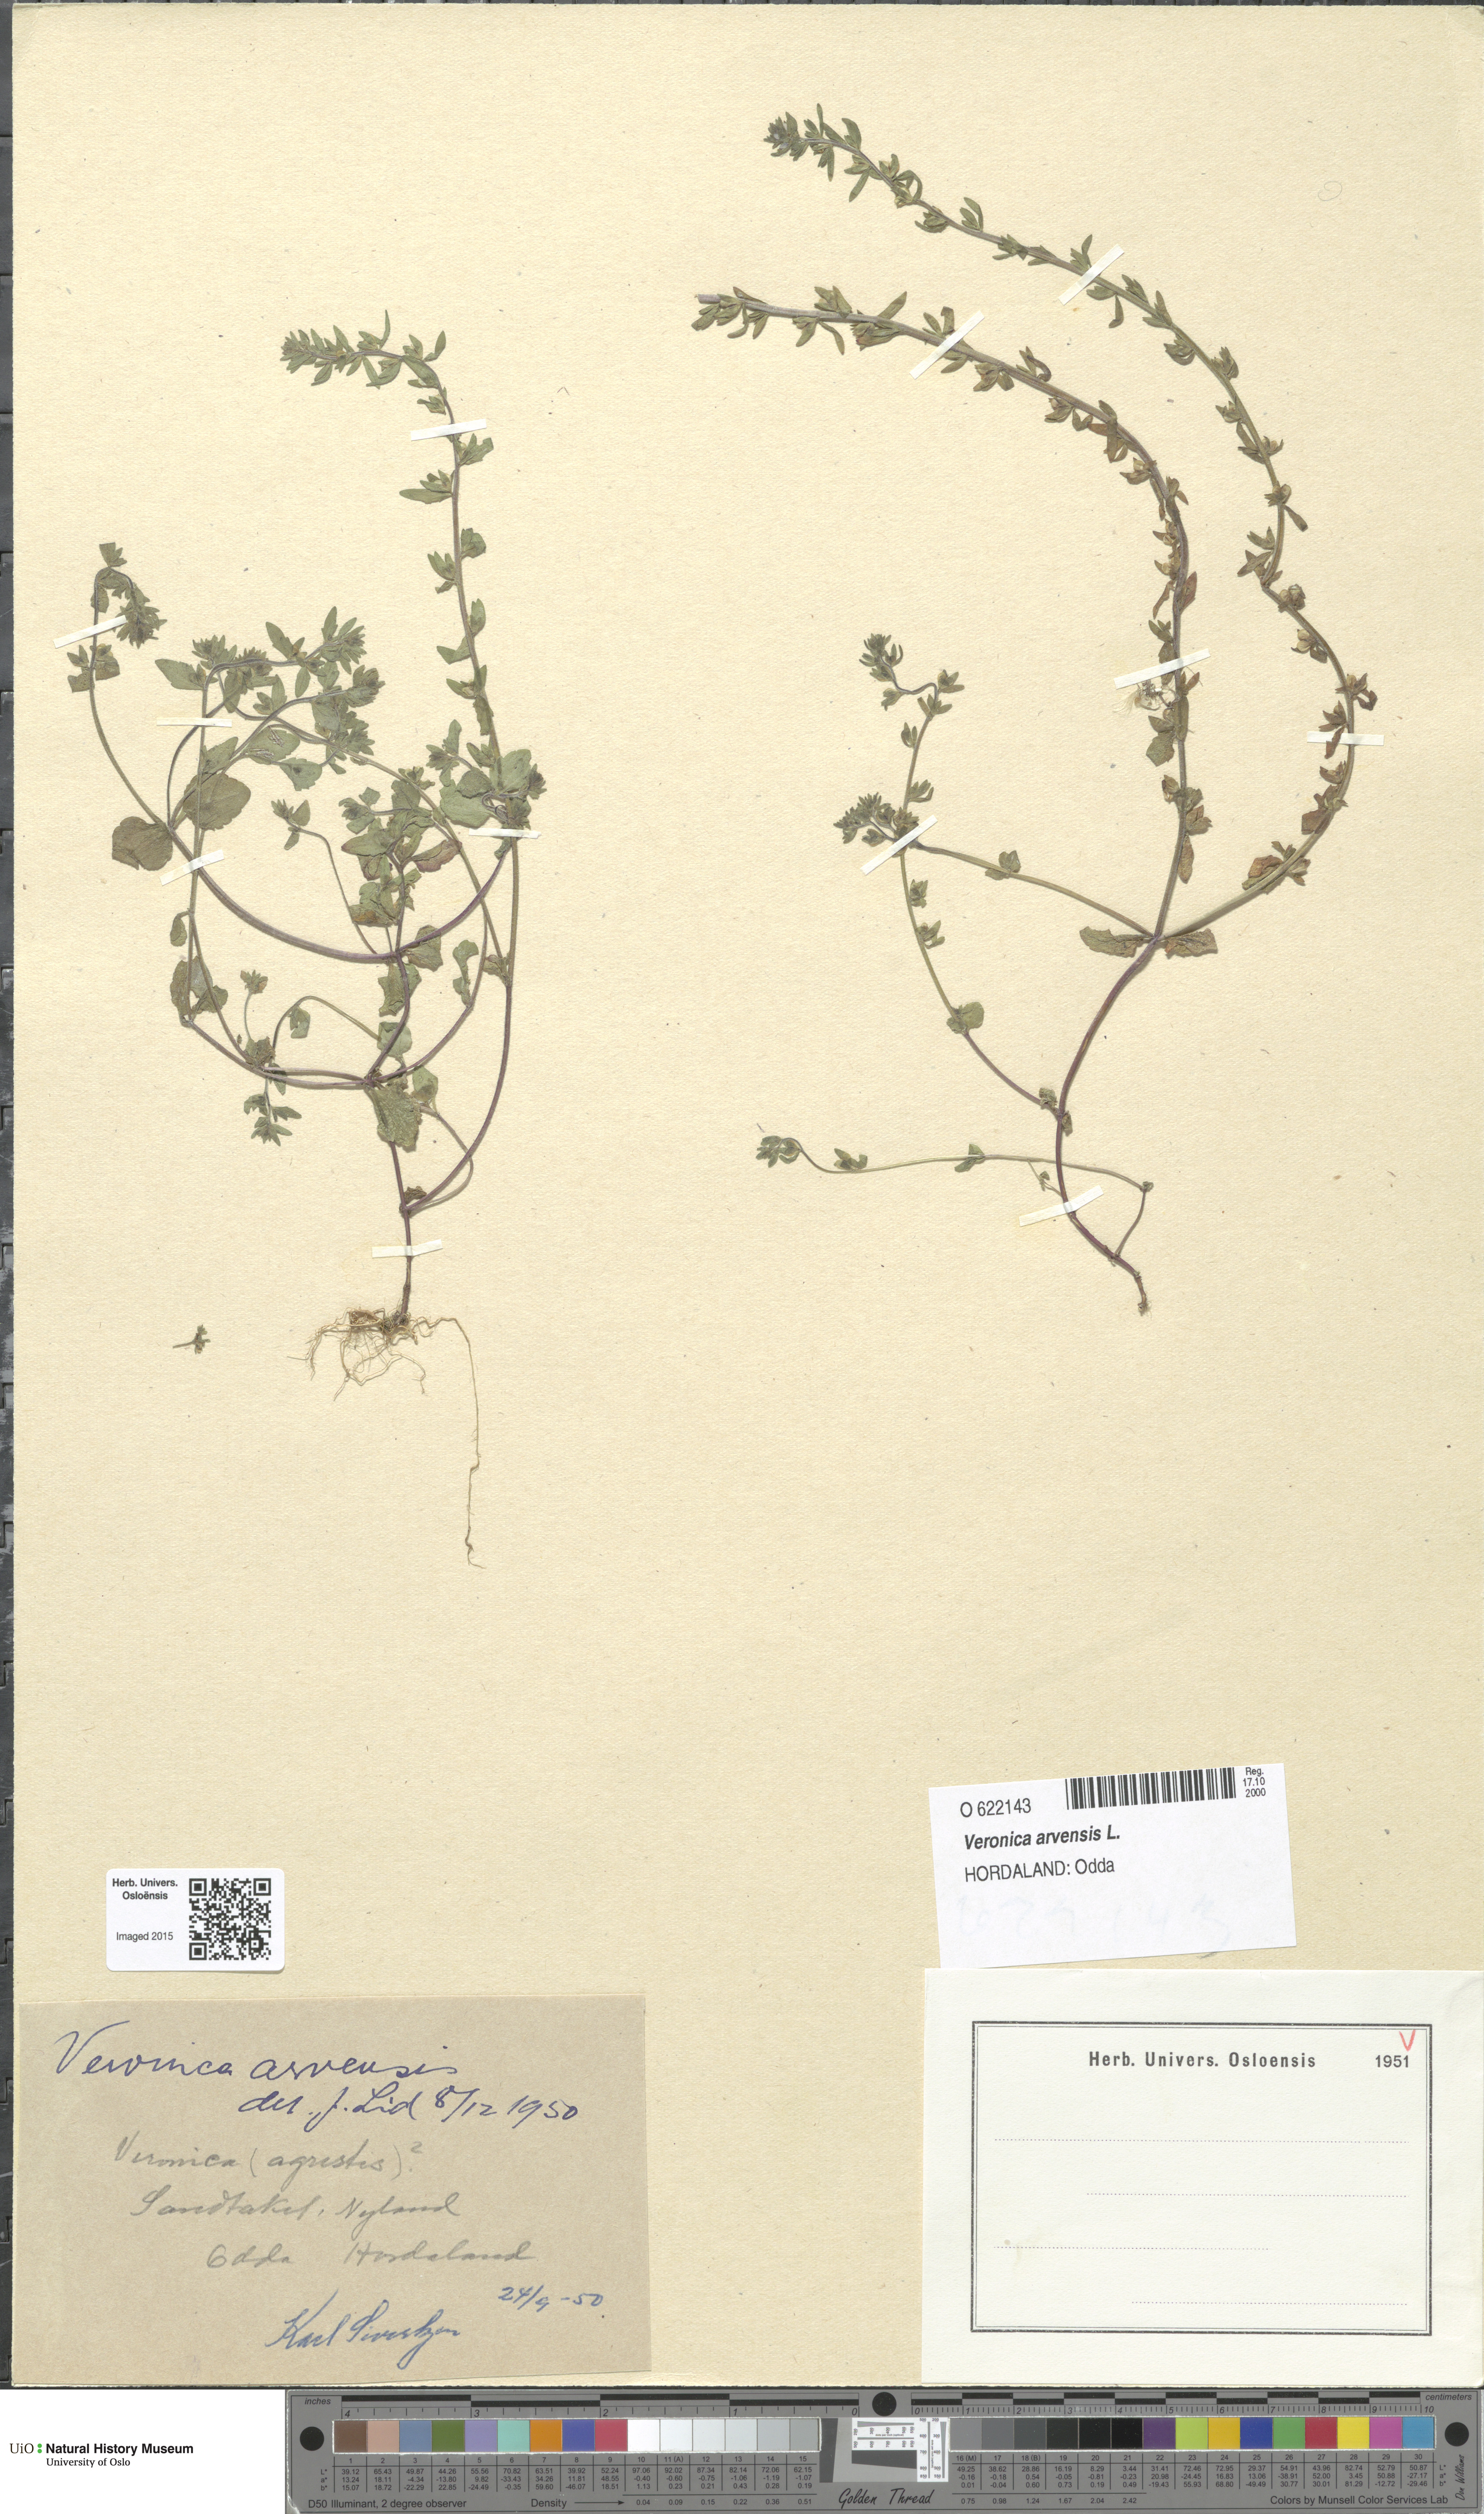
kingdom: Plantae
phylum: Tracheophyta
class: Magnoliopsida
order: Lamiales
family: Plantaginaceae
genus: Veronica
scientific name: Veronica arvensis
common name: Corn speedwell
